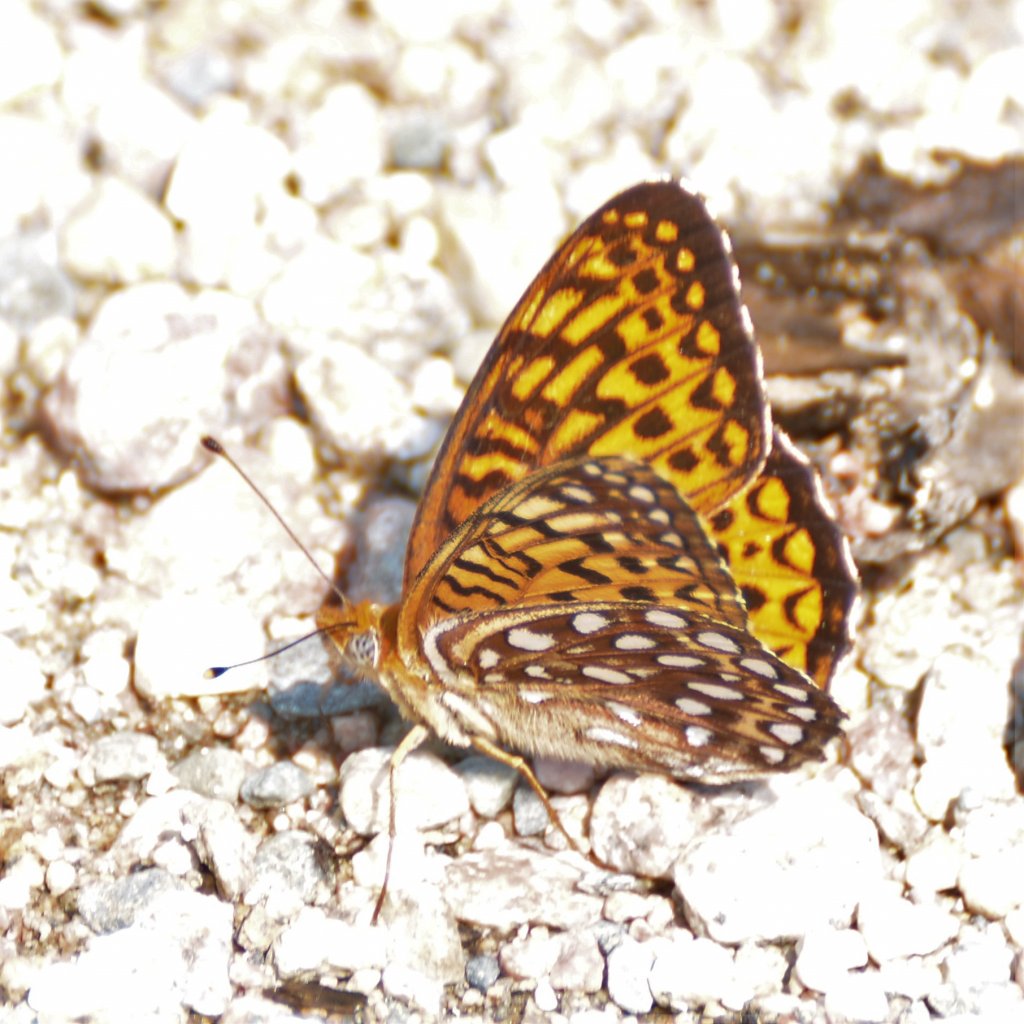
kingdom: Animalia
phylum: Arthropoda
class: Insecta
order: Lepidoptera
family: Nymphalidae
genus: Speyeria
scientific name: Speyeria atlantis
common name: Atlantis Fritillary
